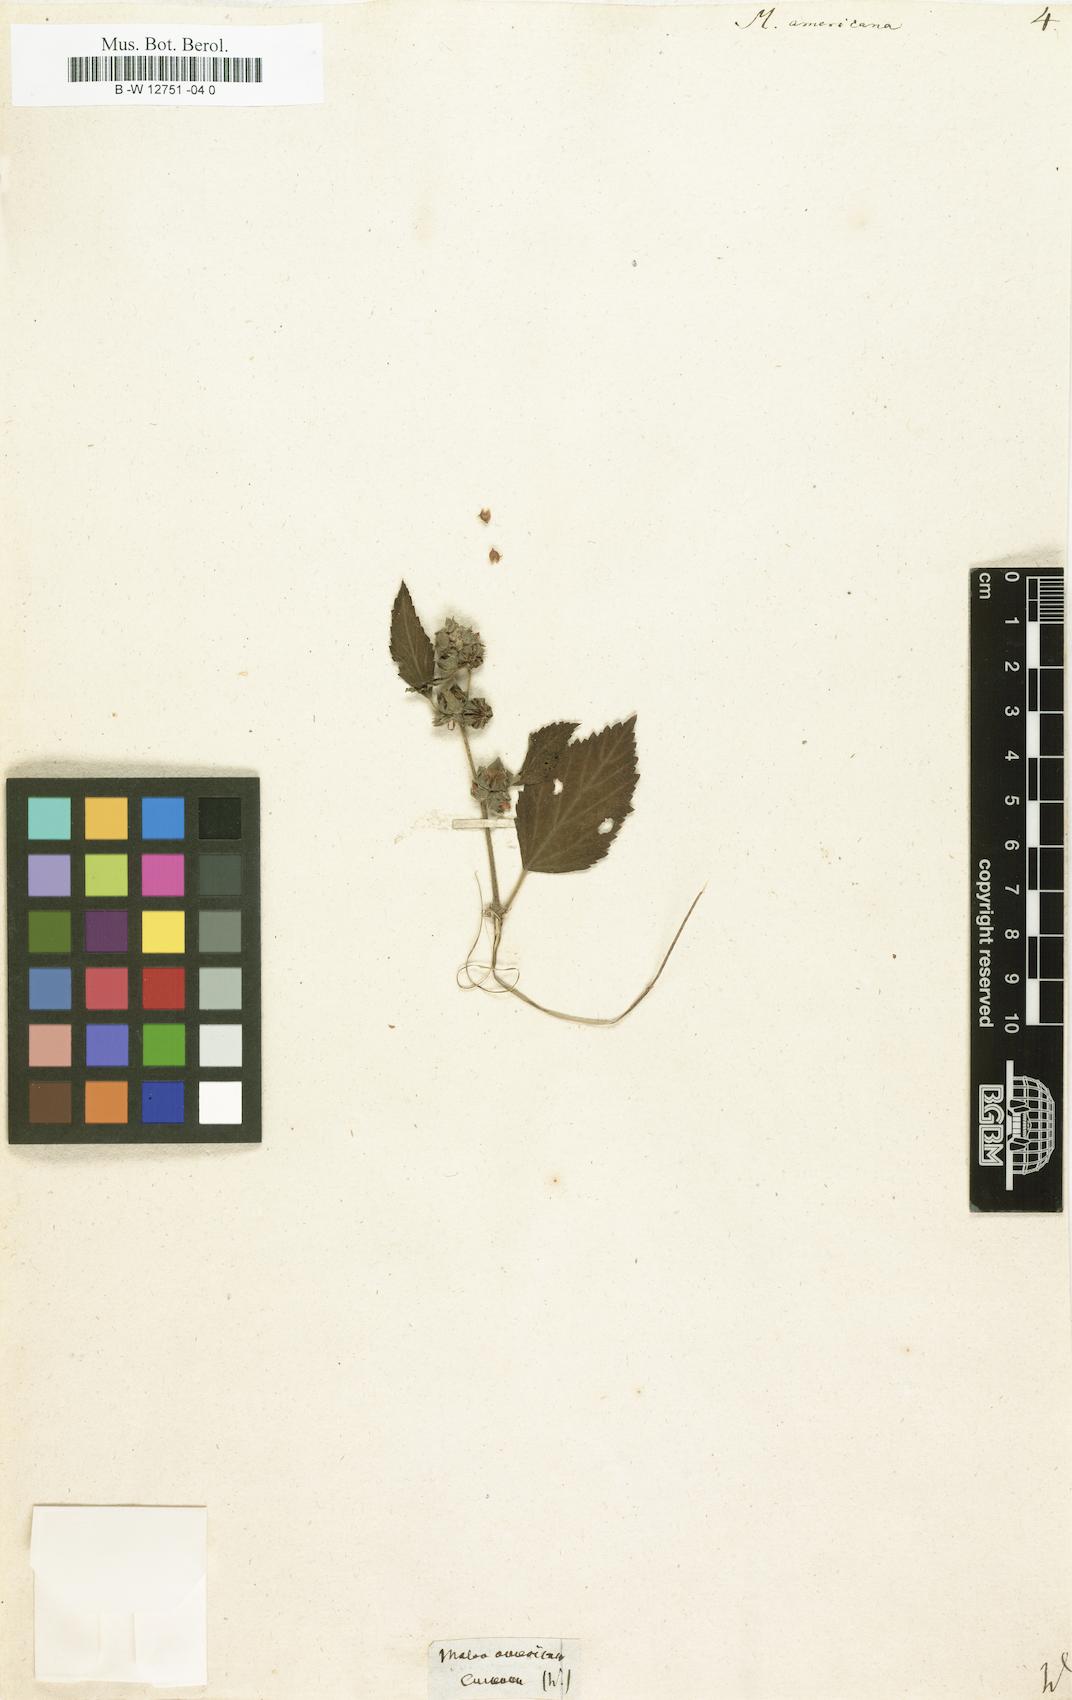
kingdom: Plantae
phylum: Tracheophyta
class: Magnoliopsida
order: Malvales
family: Malvaceae
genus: Malva
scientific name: Malva americana
